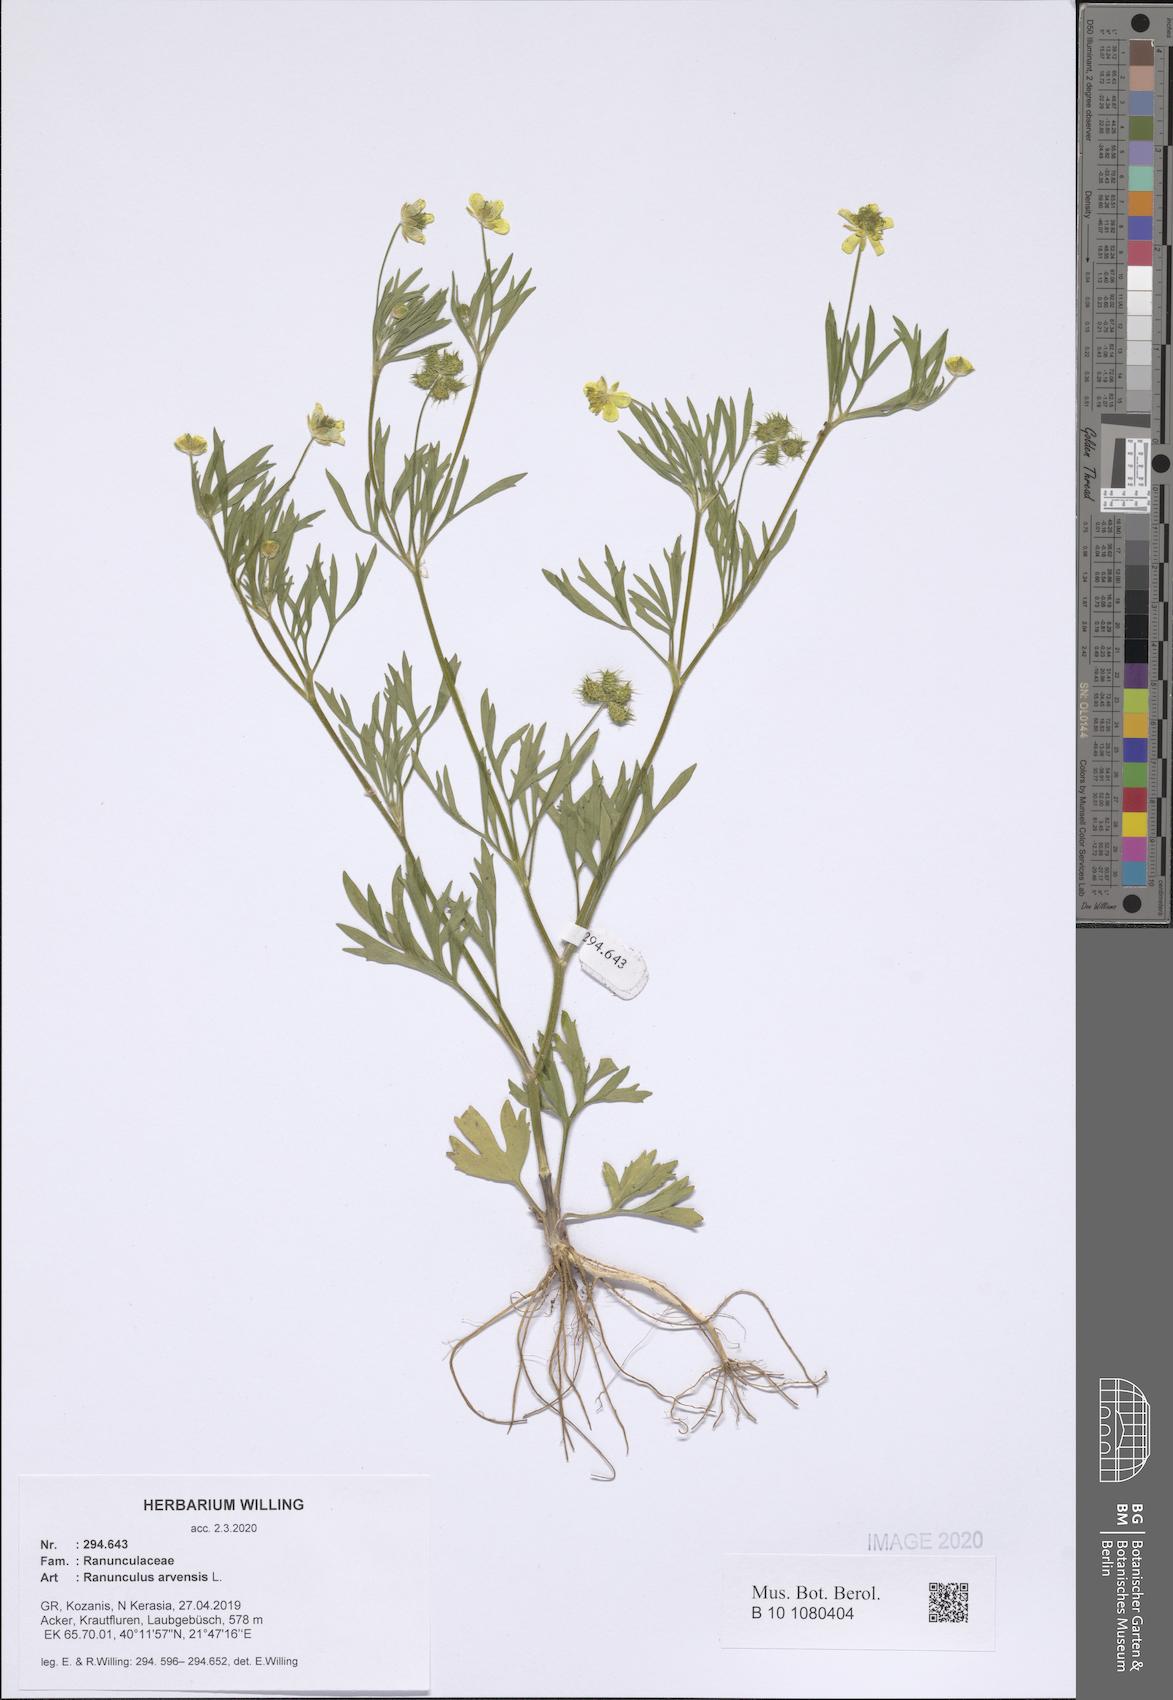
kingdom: Plantae
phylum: Tracheophyta
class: Magnoliopsida
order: Ranunculales
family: Ranunculaceae
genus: Ranunculus
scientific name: Ranunculus arvensis
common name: Corn buttercup
